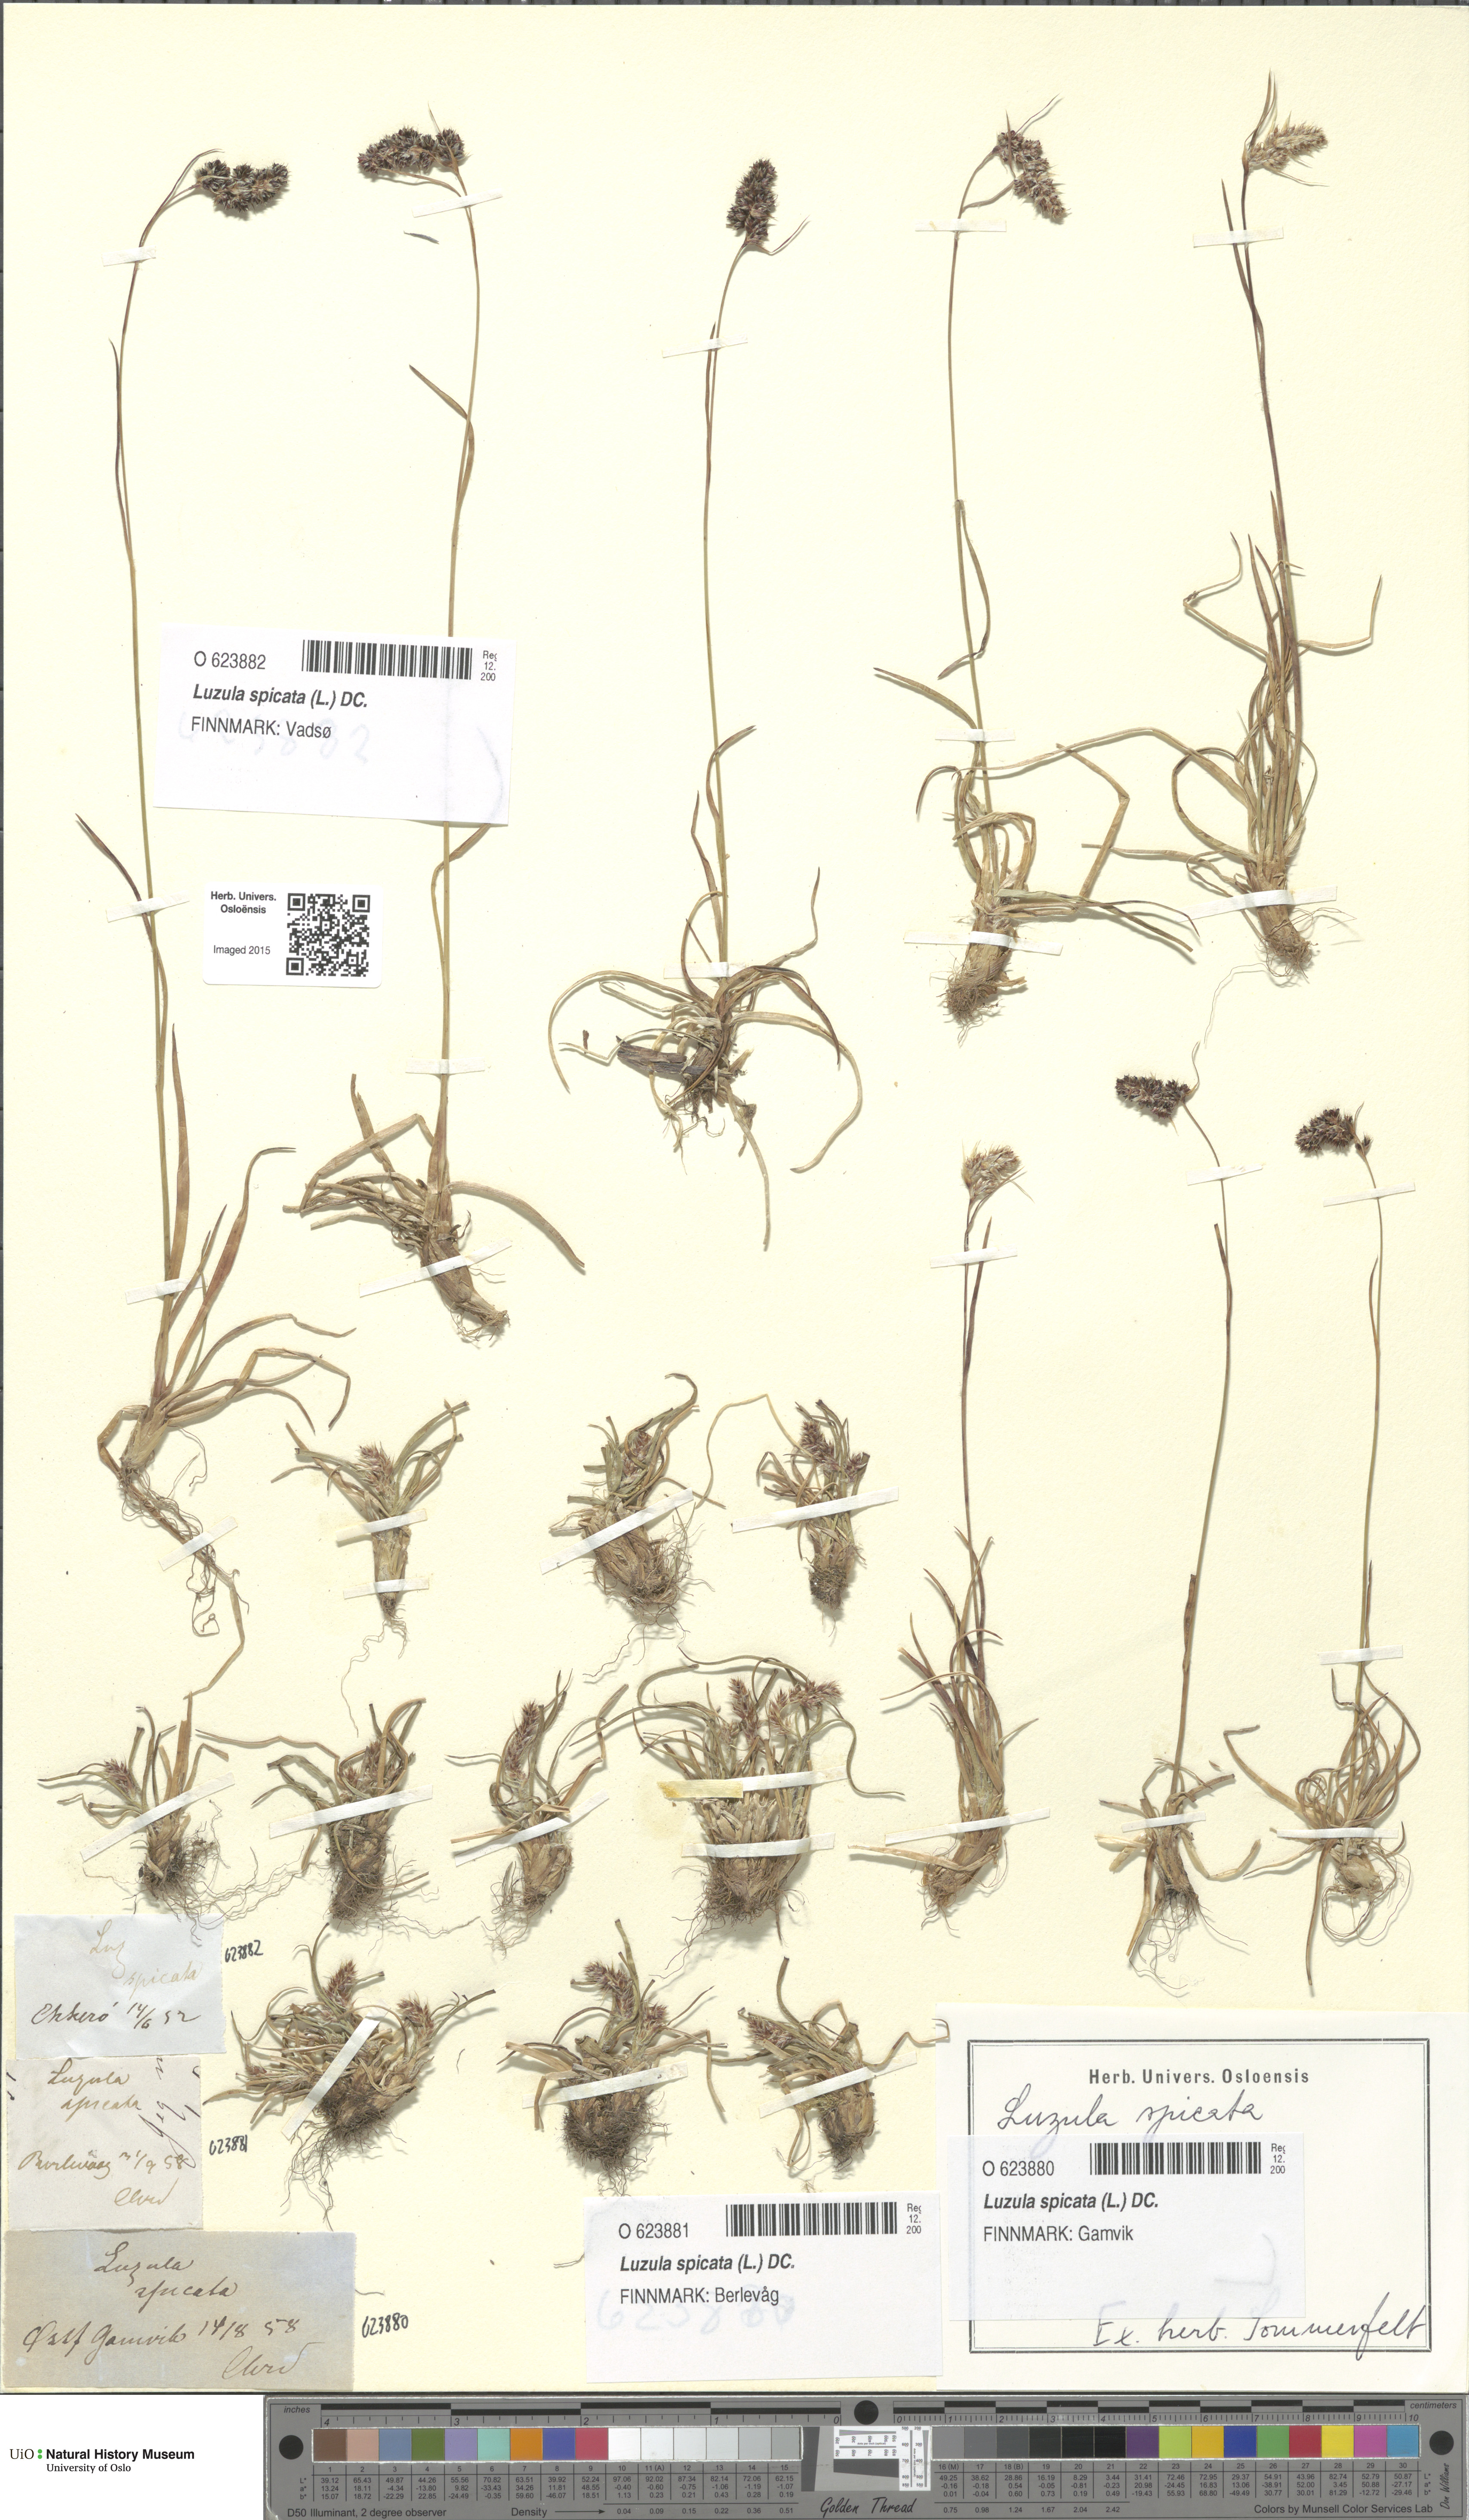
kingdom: Plantae
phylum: Tracheophyta
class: Liliopsida
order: Poales
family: Juncaceae
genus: Luzula
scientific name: Luzula spicata
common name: Spiked wood-rush
